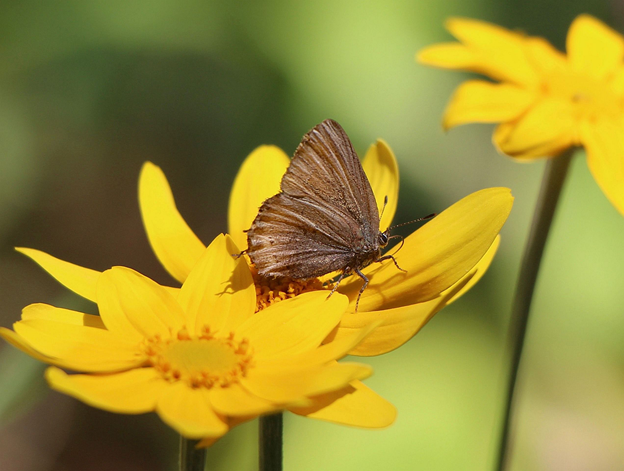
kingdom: Animalia
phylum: Arthropoda
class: Insecta
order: Lepidoptera
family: Lycaenidae
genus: Mitoura
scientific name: Mitoura gryneus
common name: Juniper Hairstreak
